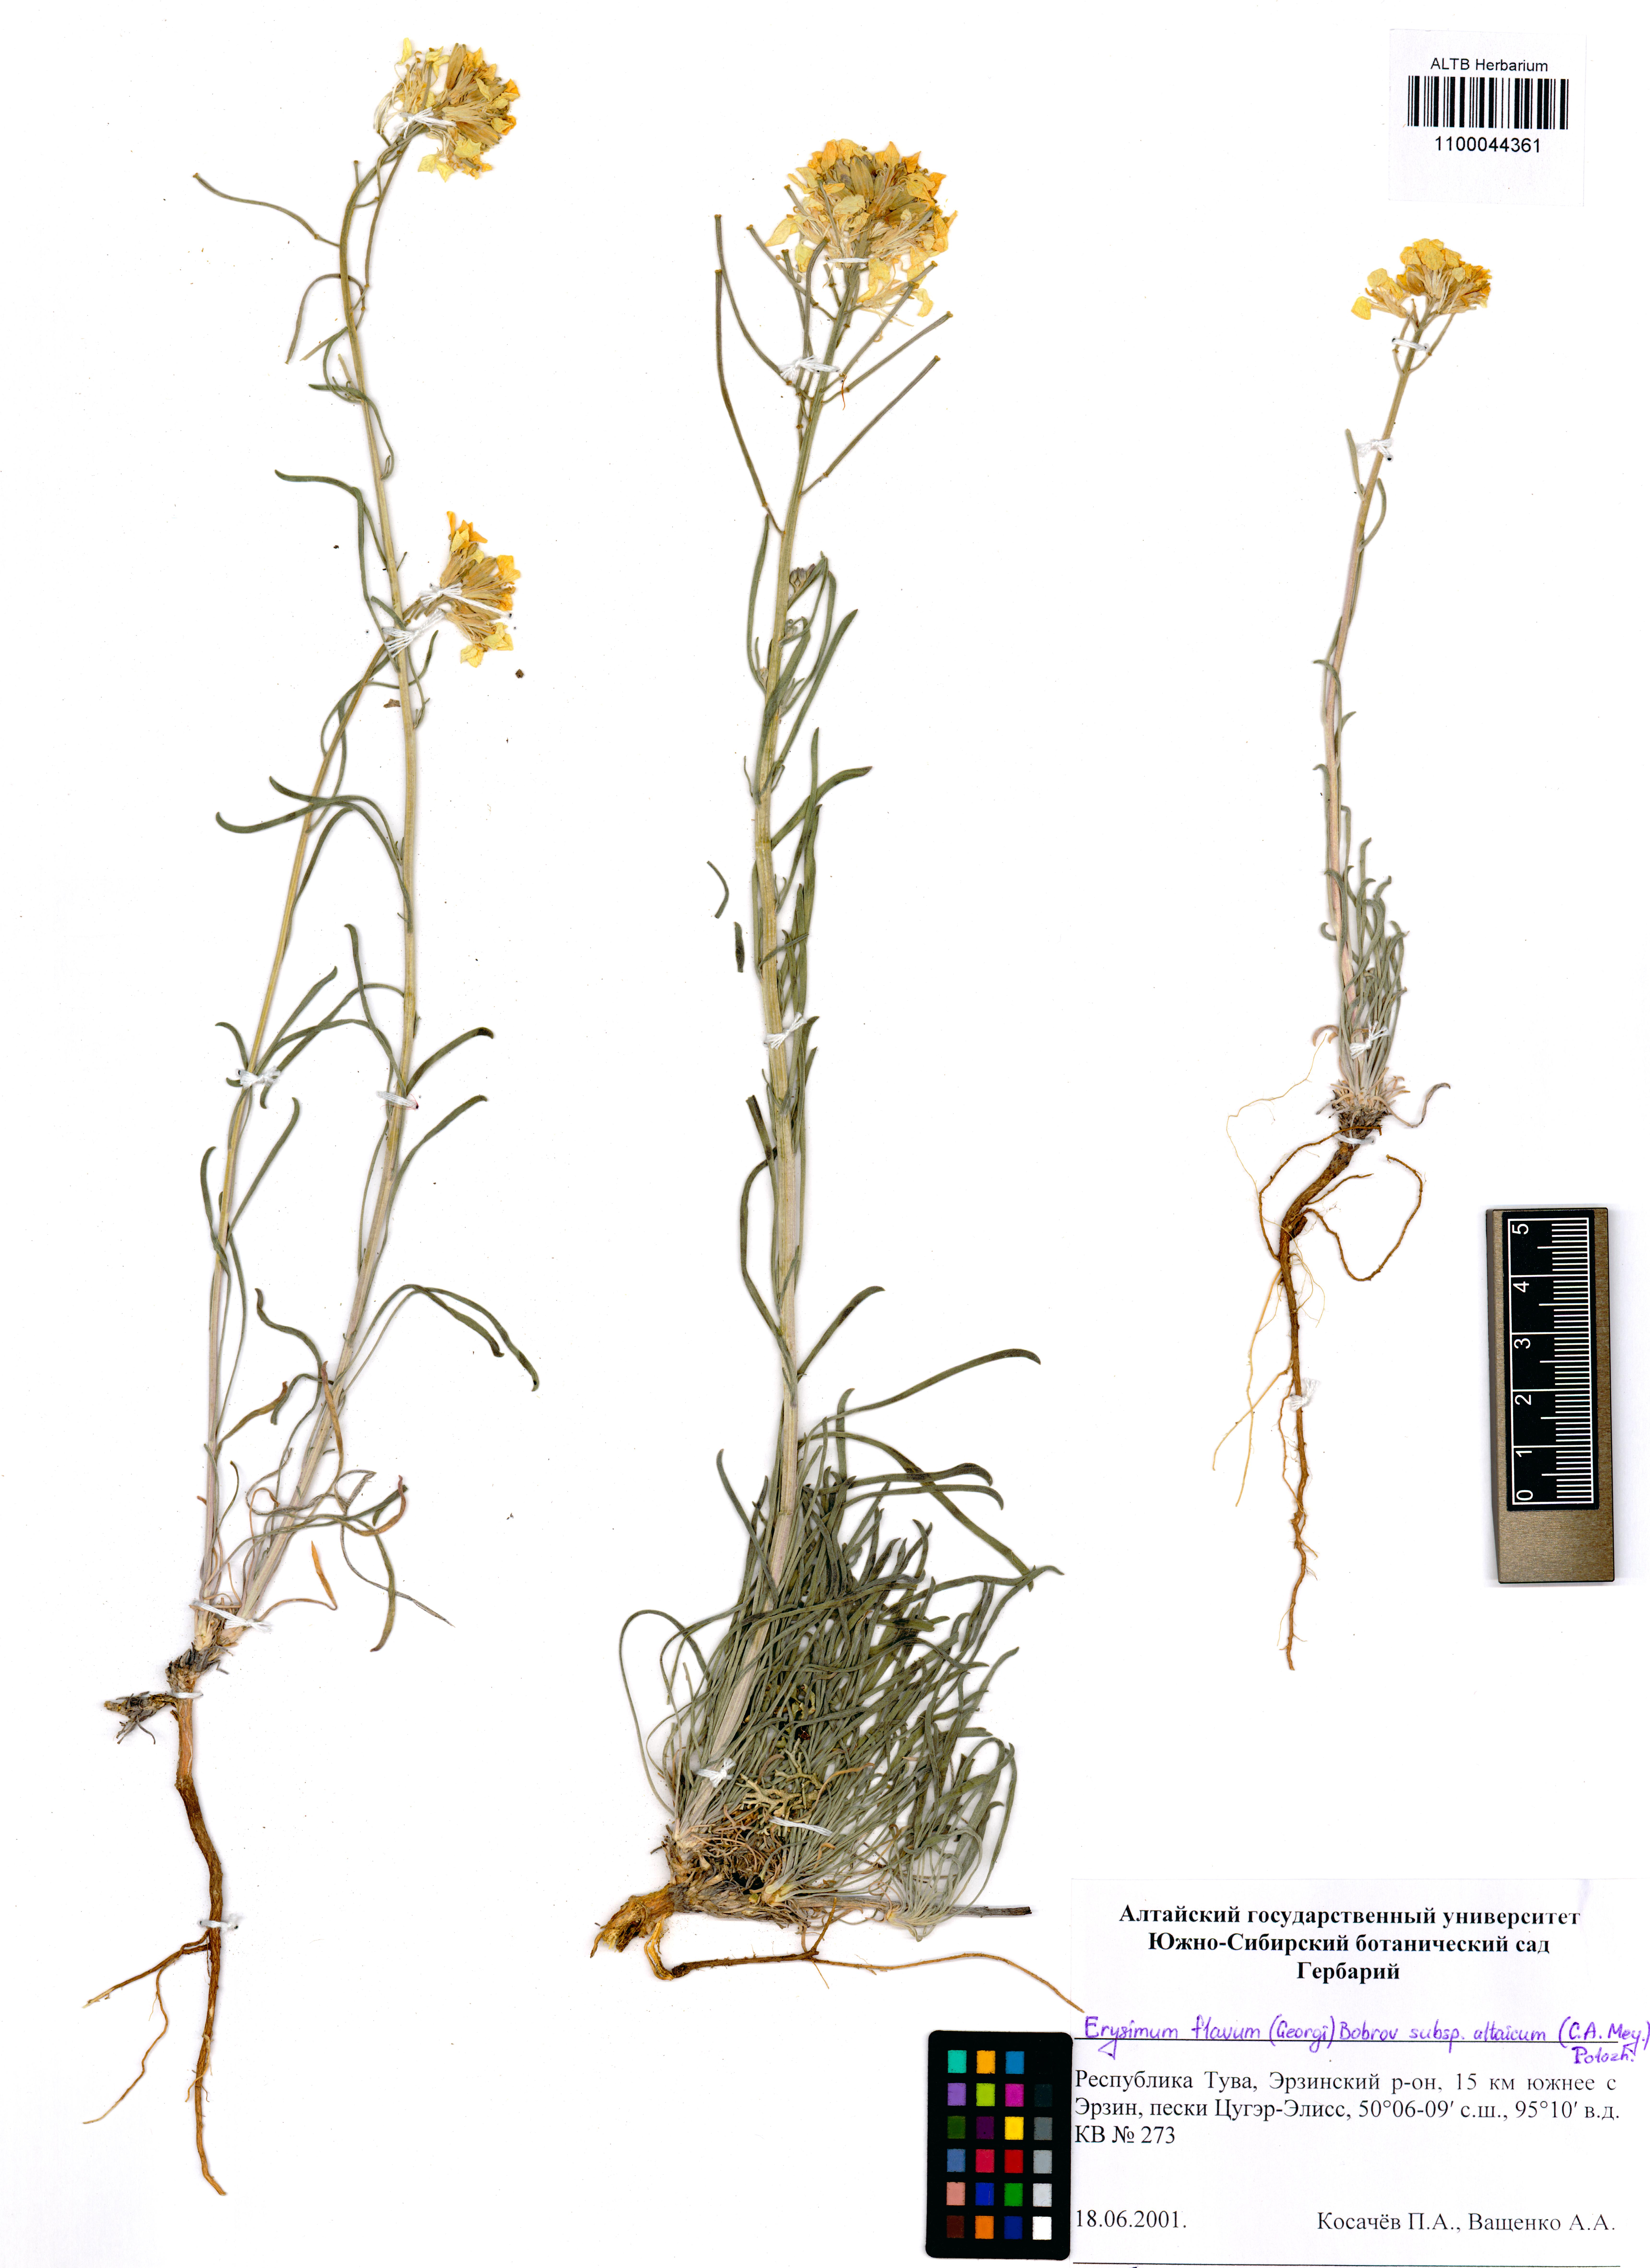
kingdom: Plantae
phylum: Tracheophyta
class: Magnoliopsida
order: Brassicales
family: Brassicaceae
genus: Erysimum
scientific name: Erysimum flavum
